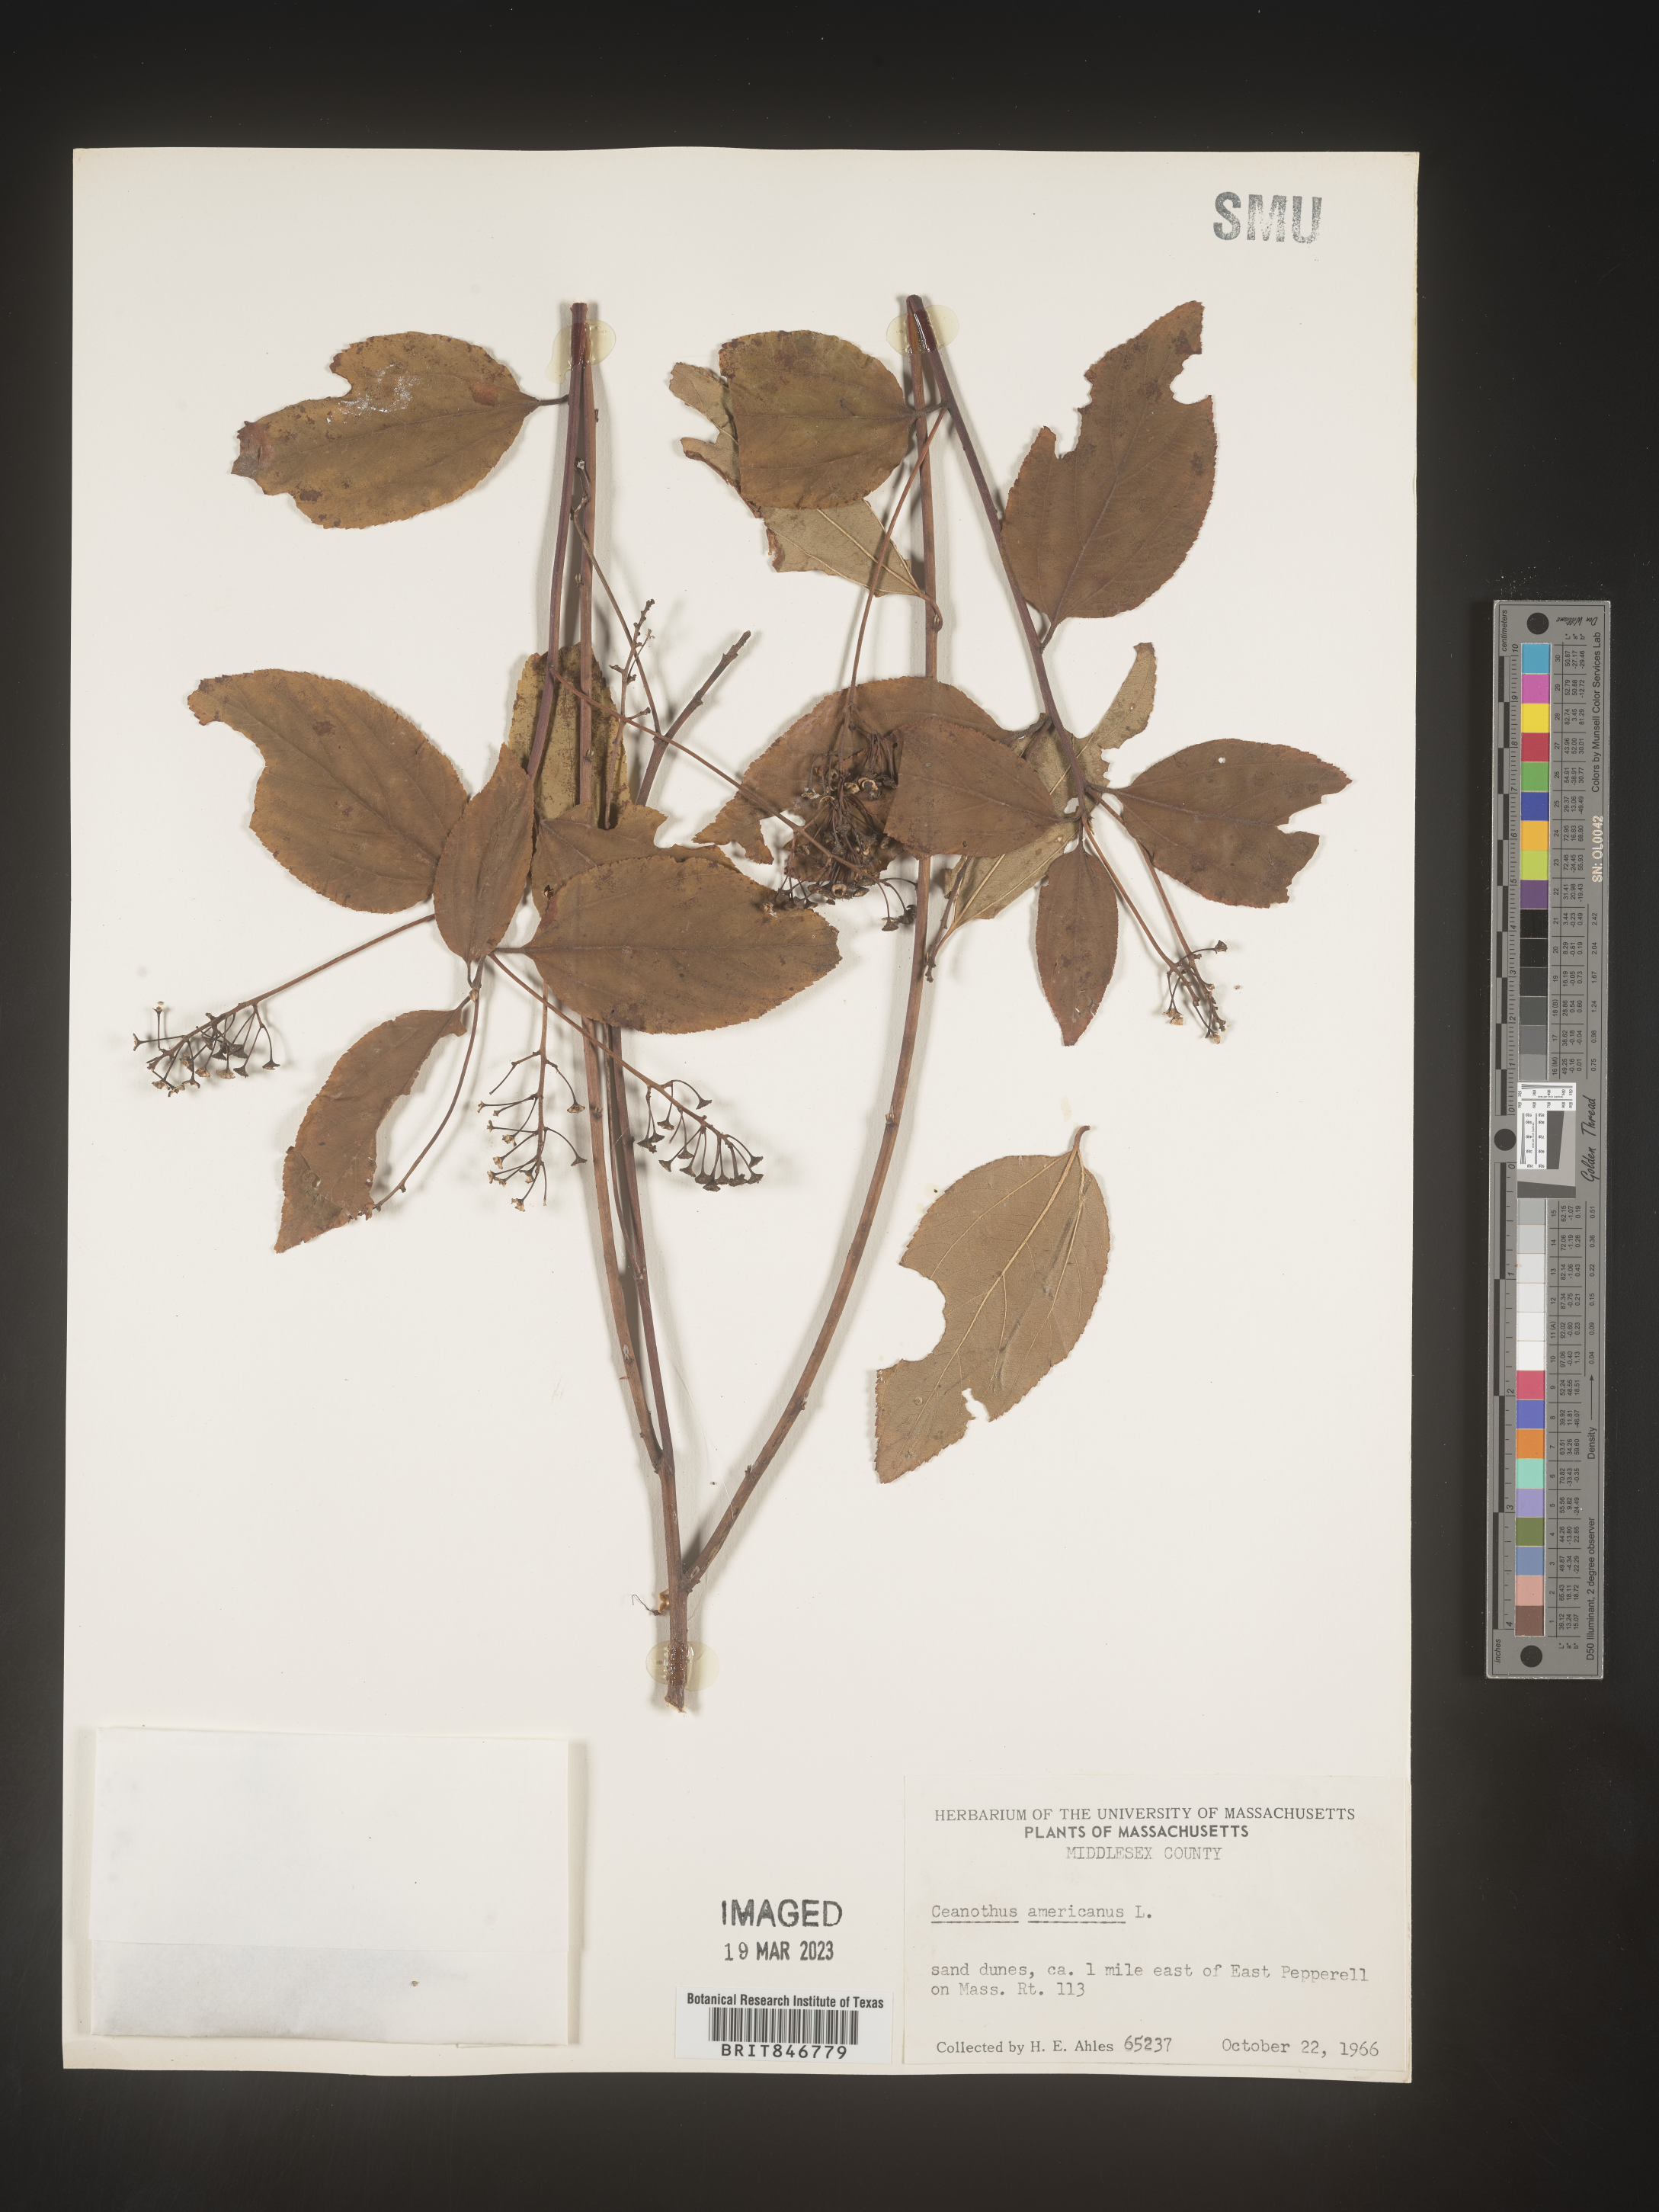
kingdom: Plantae
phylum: Tracheophyta
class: Magnoliopsida
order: Rosales
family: Rhamnaceae
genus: Ceanothus
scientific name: Ceanothus americanus
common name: Redroot
